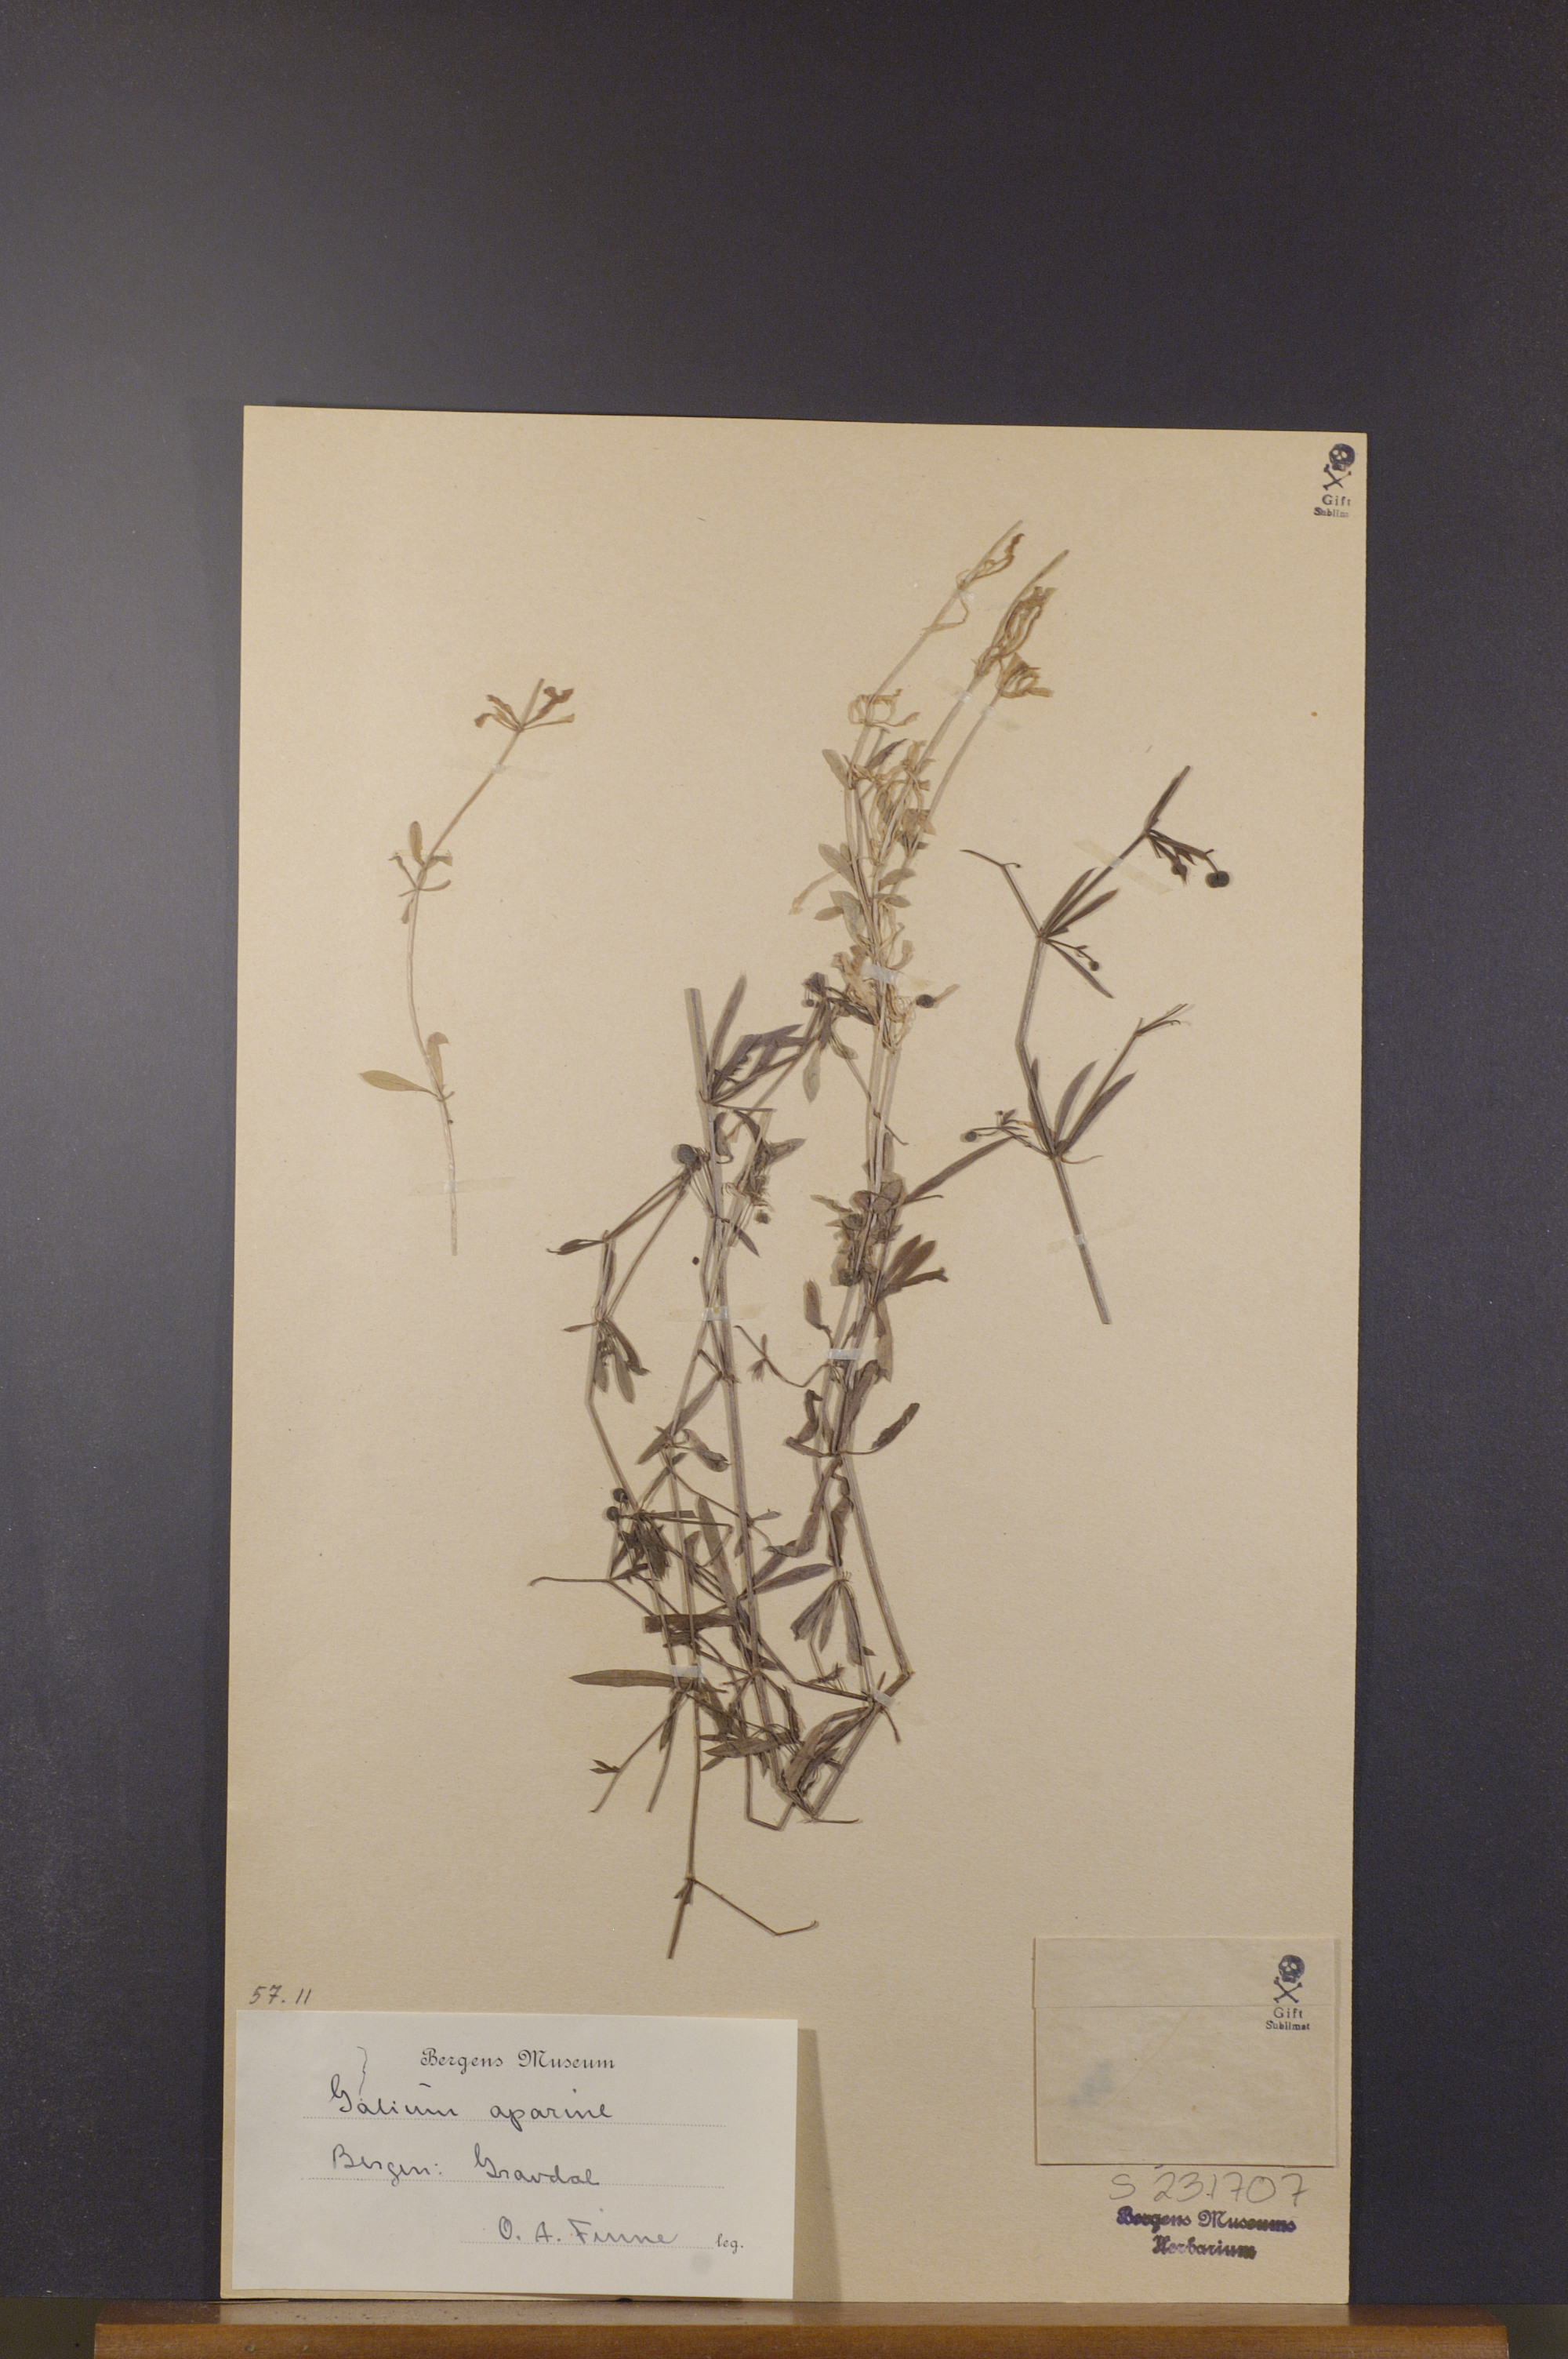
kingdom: Plantae
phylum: Tracheophyta
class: Magnoliopsida
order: Gentianales
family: Rubiaceae
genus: Galium
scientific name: Galium aparine
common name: Cleavers
